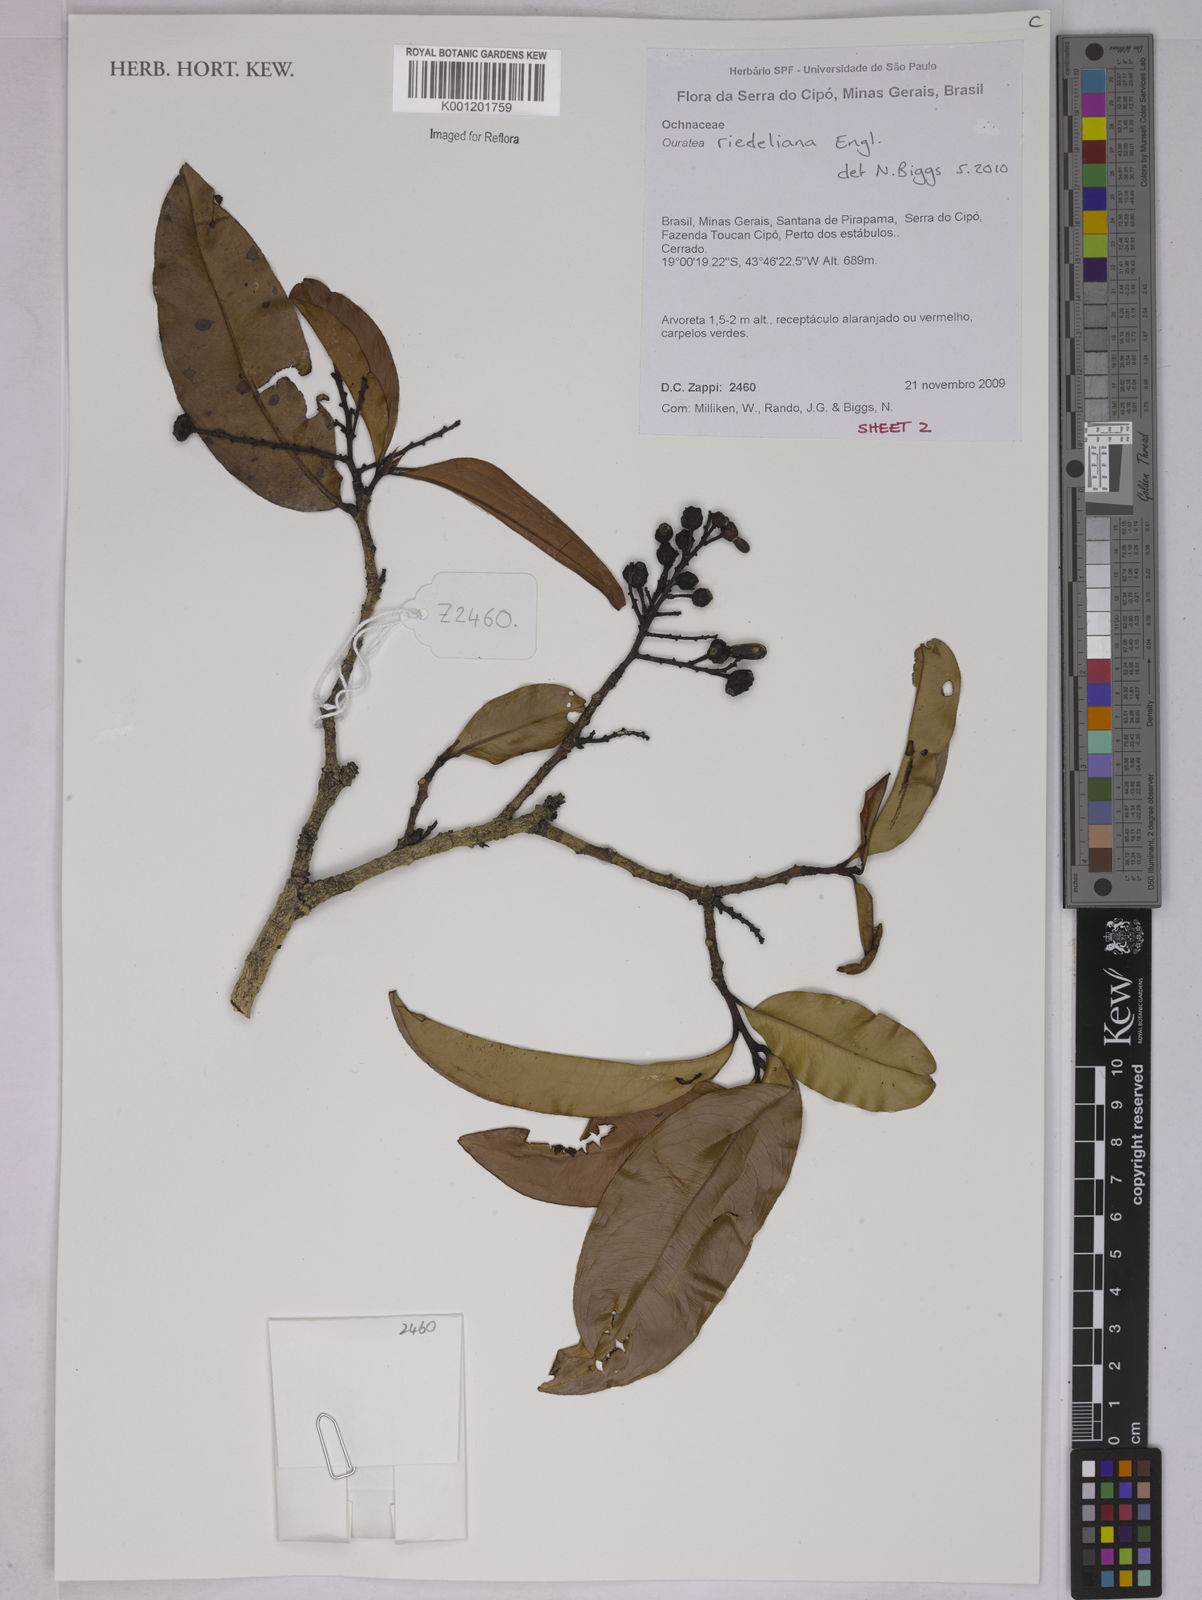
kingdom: Plantae
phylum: Tracheophyta
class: Magnoliopsida
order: Malpighiales
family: Ochnaceae
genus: Ouratea
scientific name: Ouratea riedeliana
